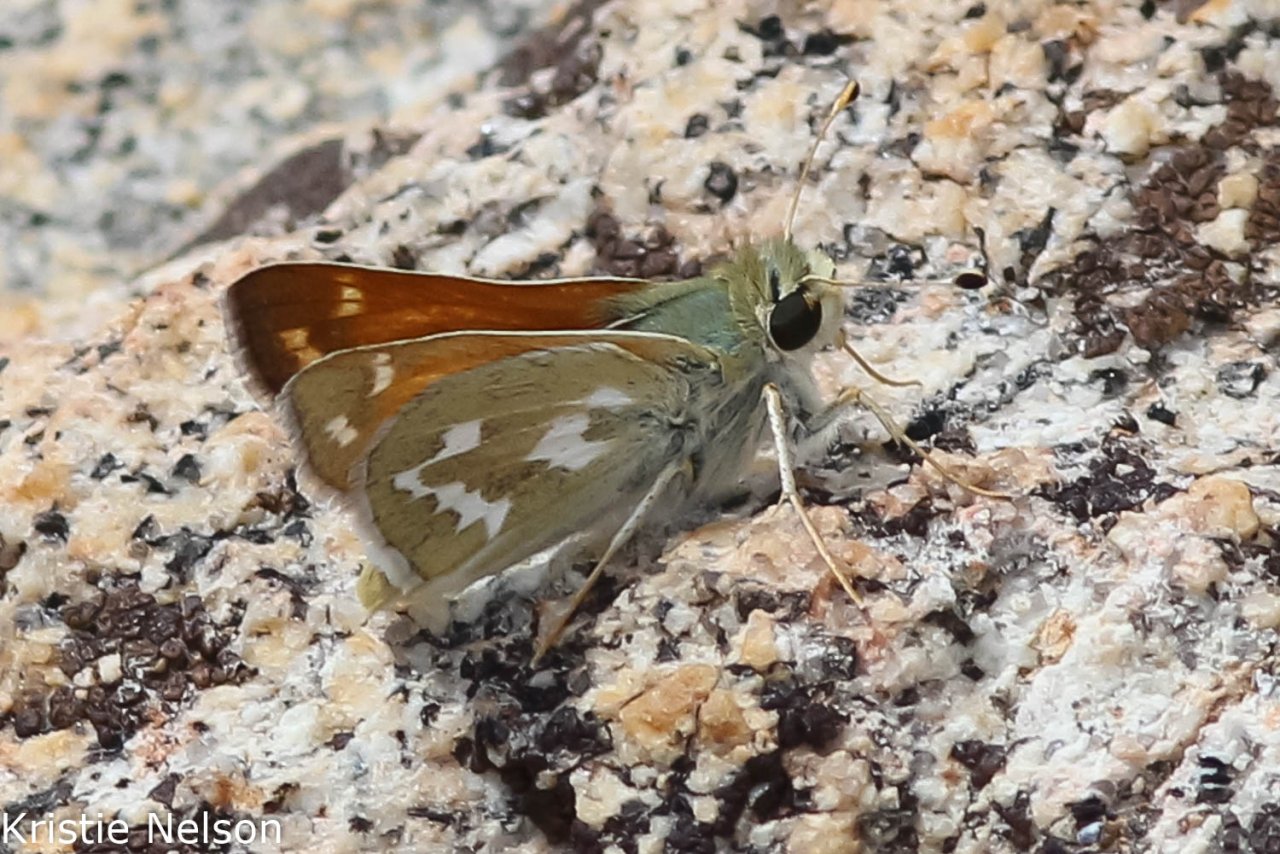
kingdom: Animalia
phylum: Arthropoda
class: Insecta
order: Lepidoptera
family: Hesperiidae
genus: Hesperia
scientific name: Hesperia comma
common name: Western Branded Skipper
